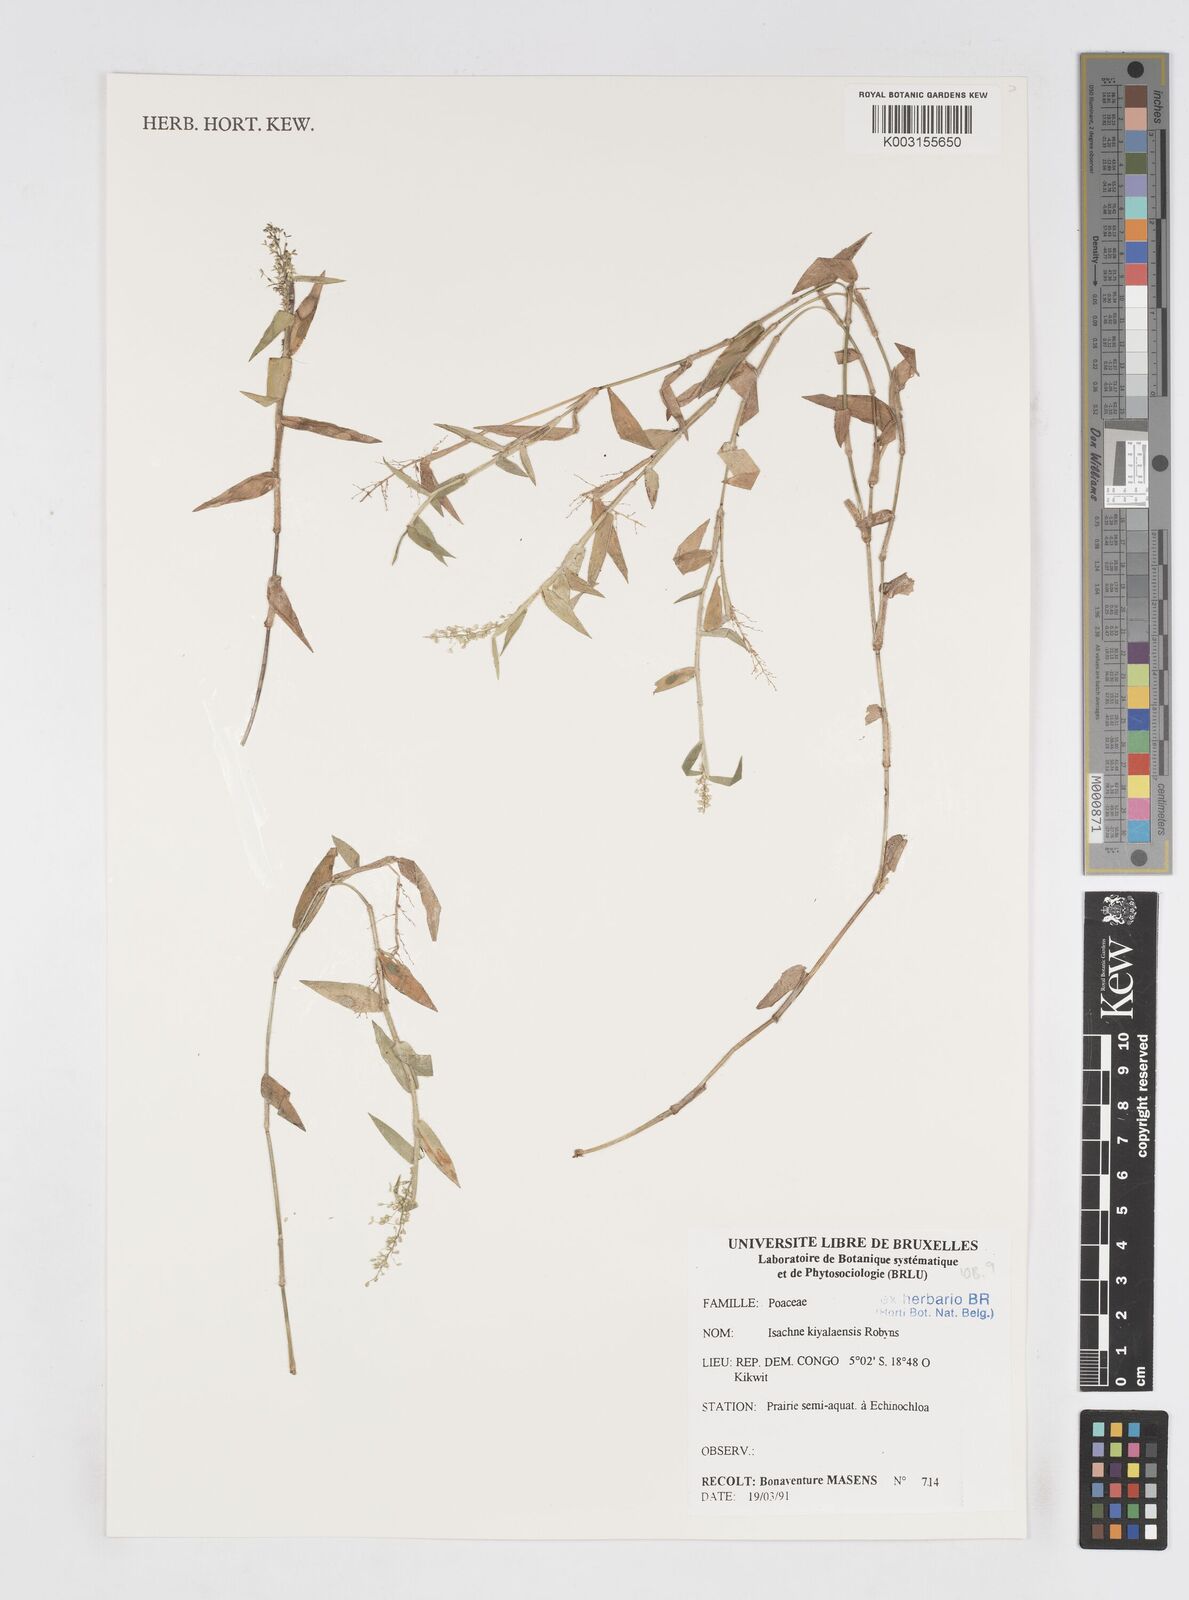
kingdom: Plantae
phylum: Tracheophyta
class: Liliopsida
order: Poales
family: Poaceae
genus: Isachne
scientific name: Isachne kiyalaensis
